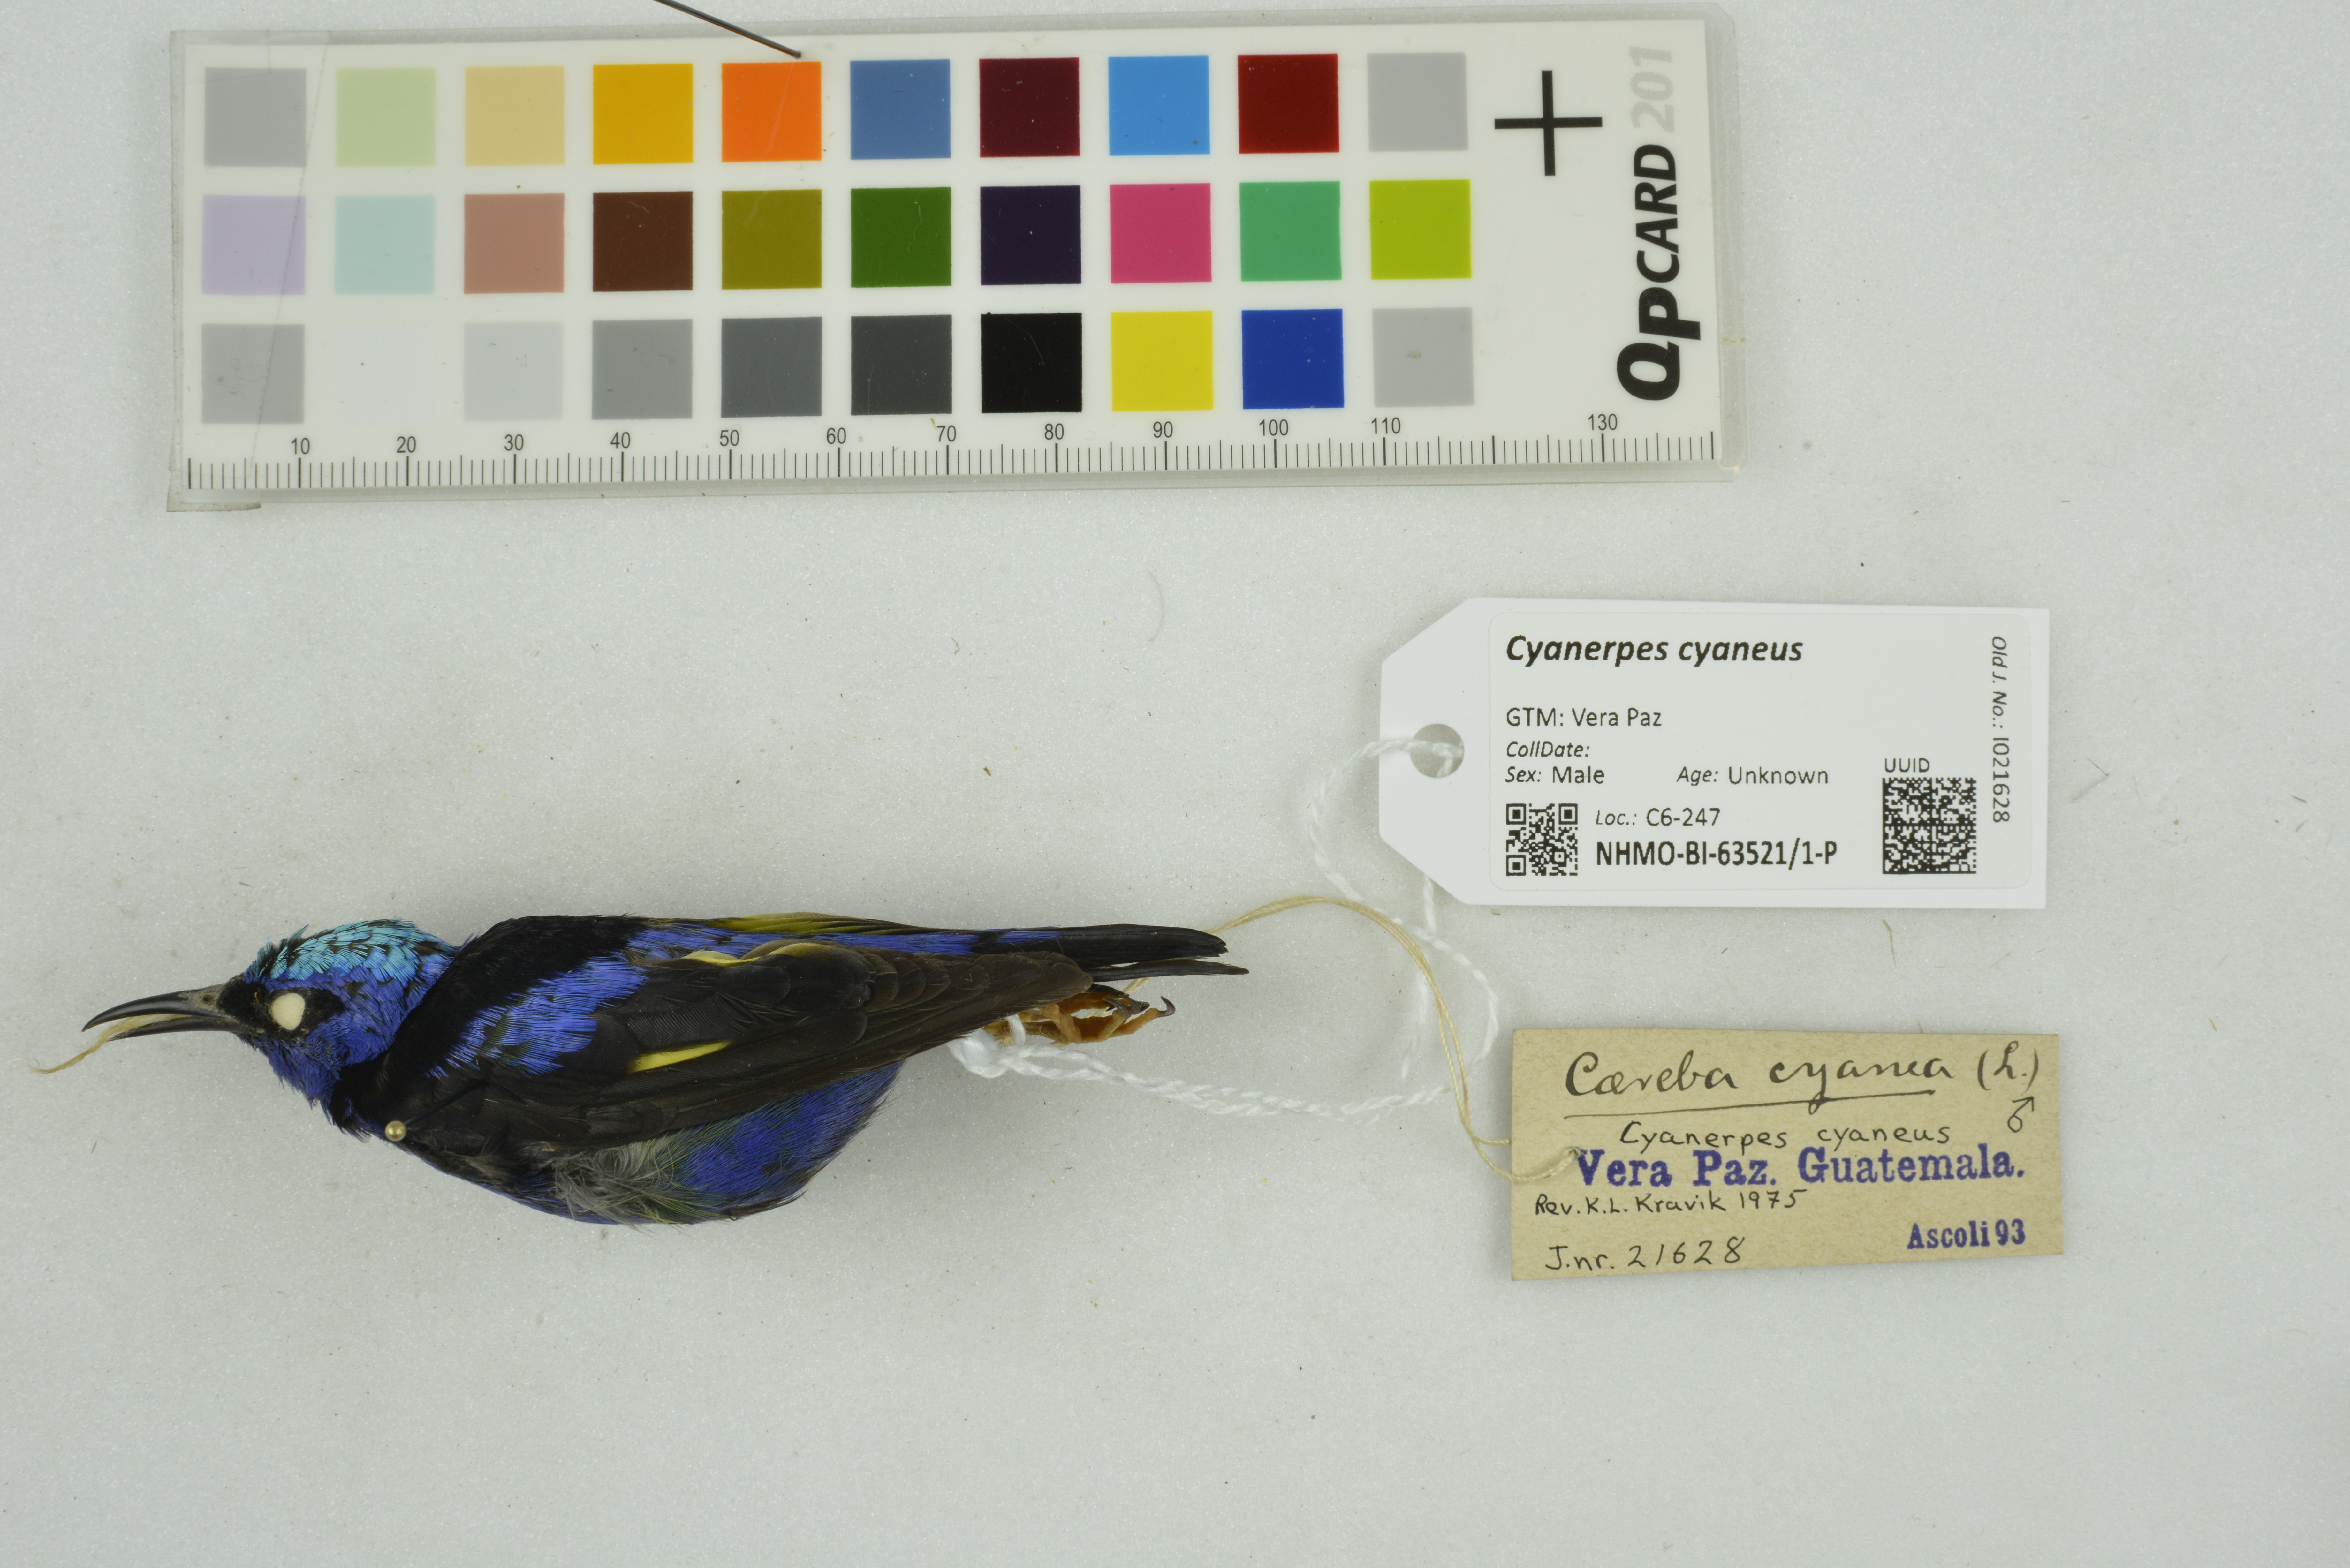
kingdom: Animalia
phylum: Chordata
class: Aves
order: Passeriformes
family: Thraupidae
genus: Cyanerpes
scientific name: Cyanerpes cyaneus
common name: Red-legged honeycreeper
